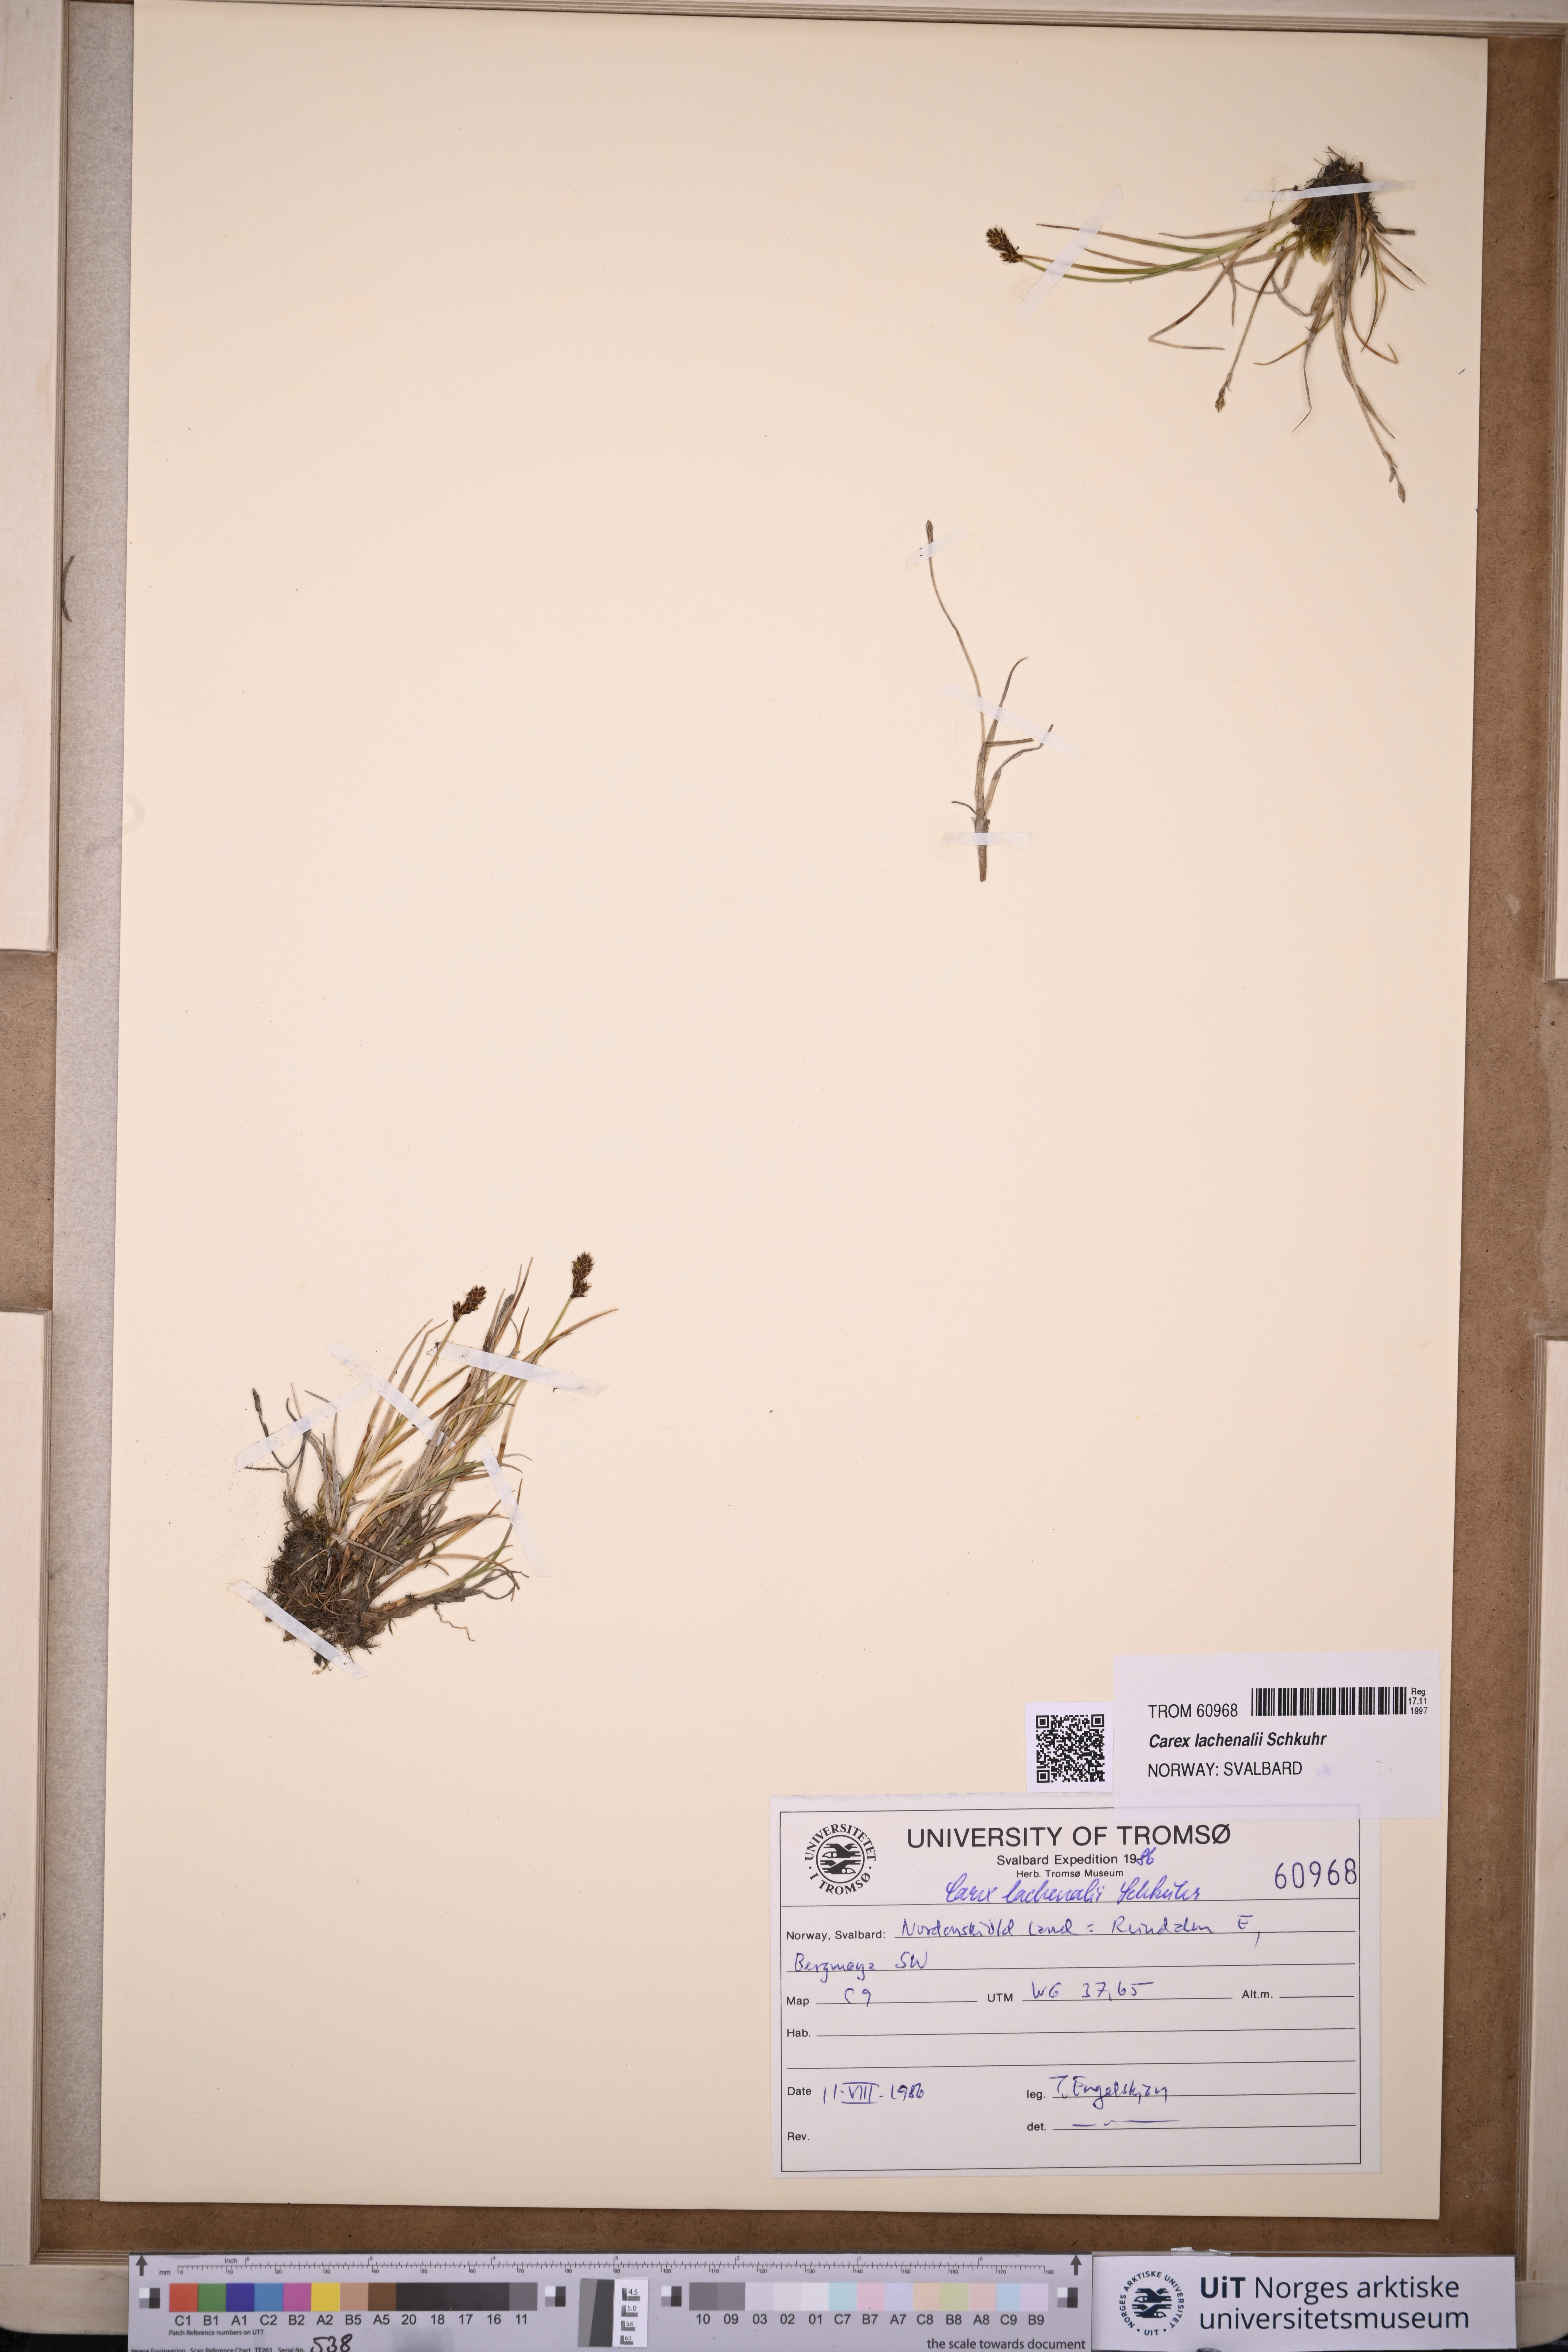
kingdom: Plantae
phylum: Tracheophyta
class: Liliopsida
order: Poales
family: Cyperaceae
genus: Carex
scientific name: Carex lachenalii
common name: Hare's-foot sedge
